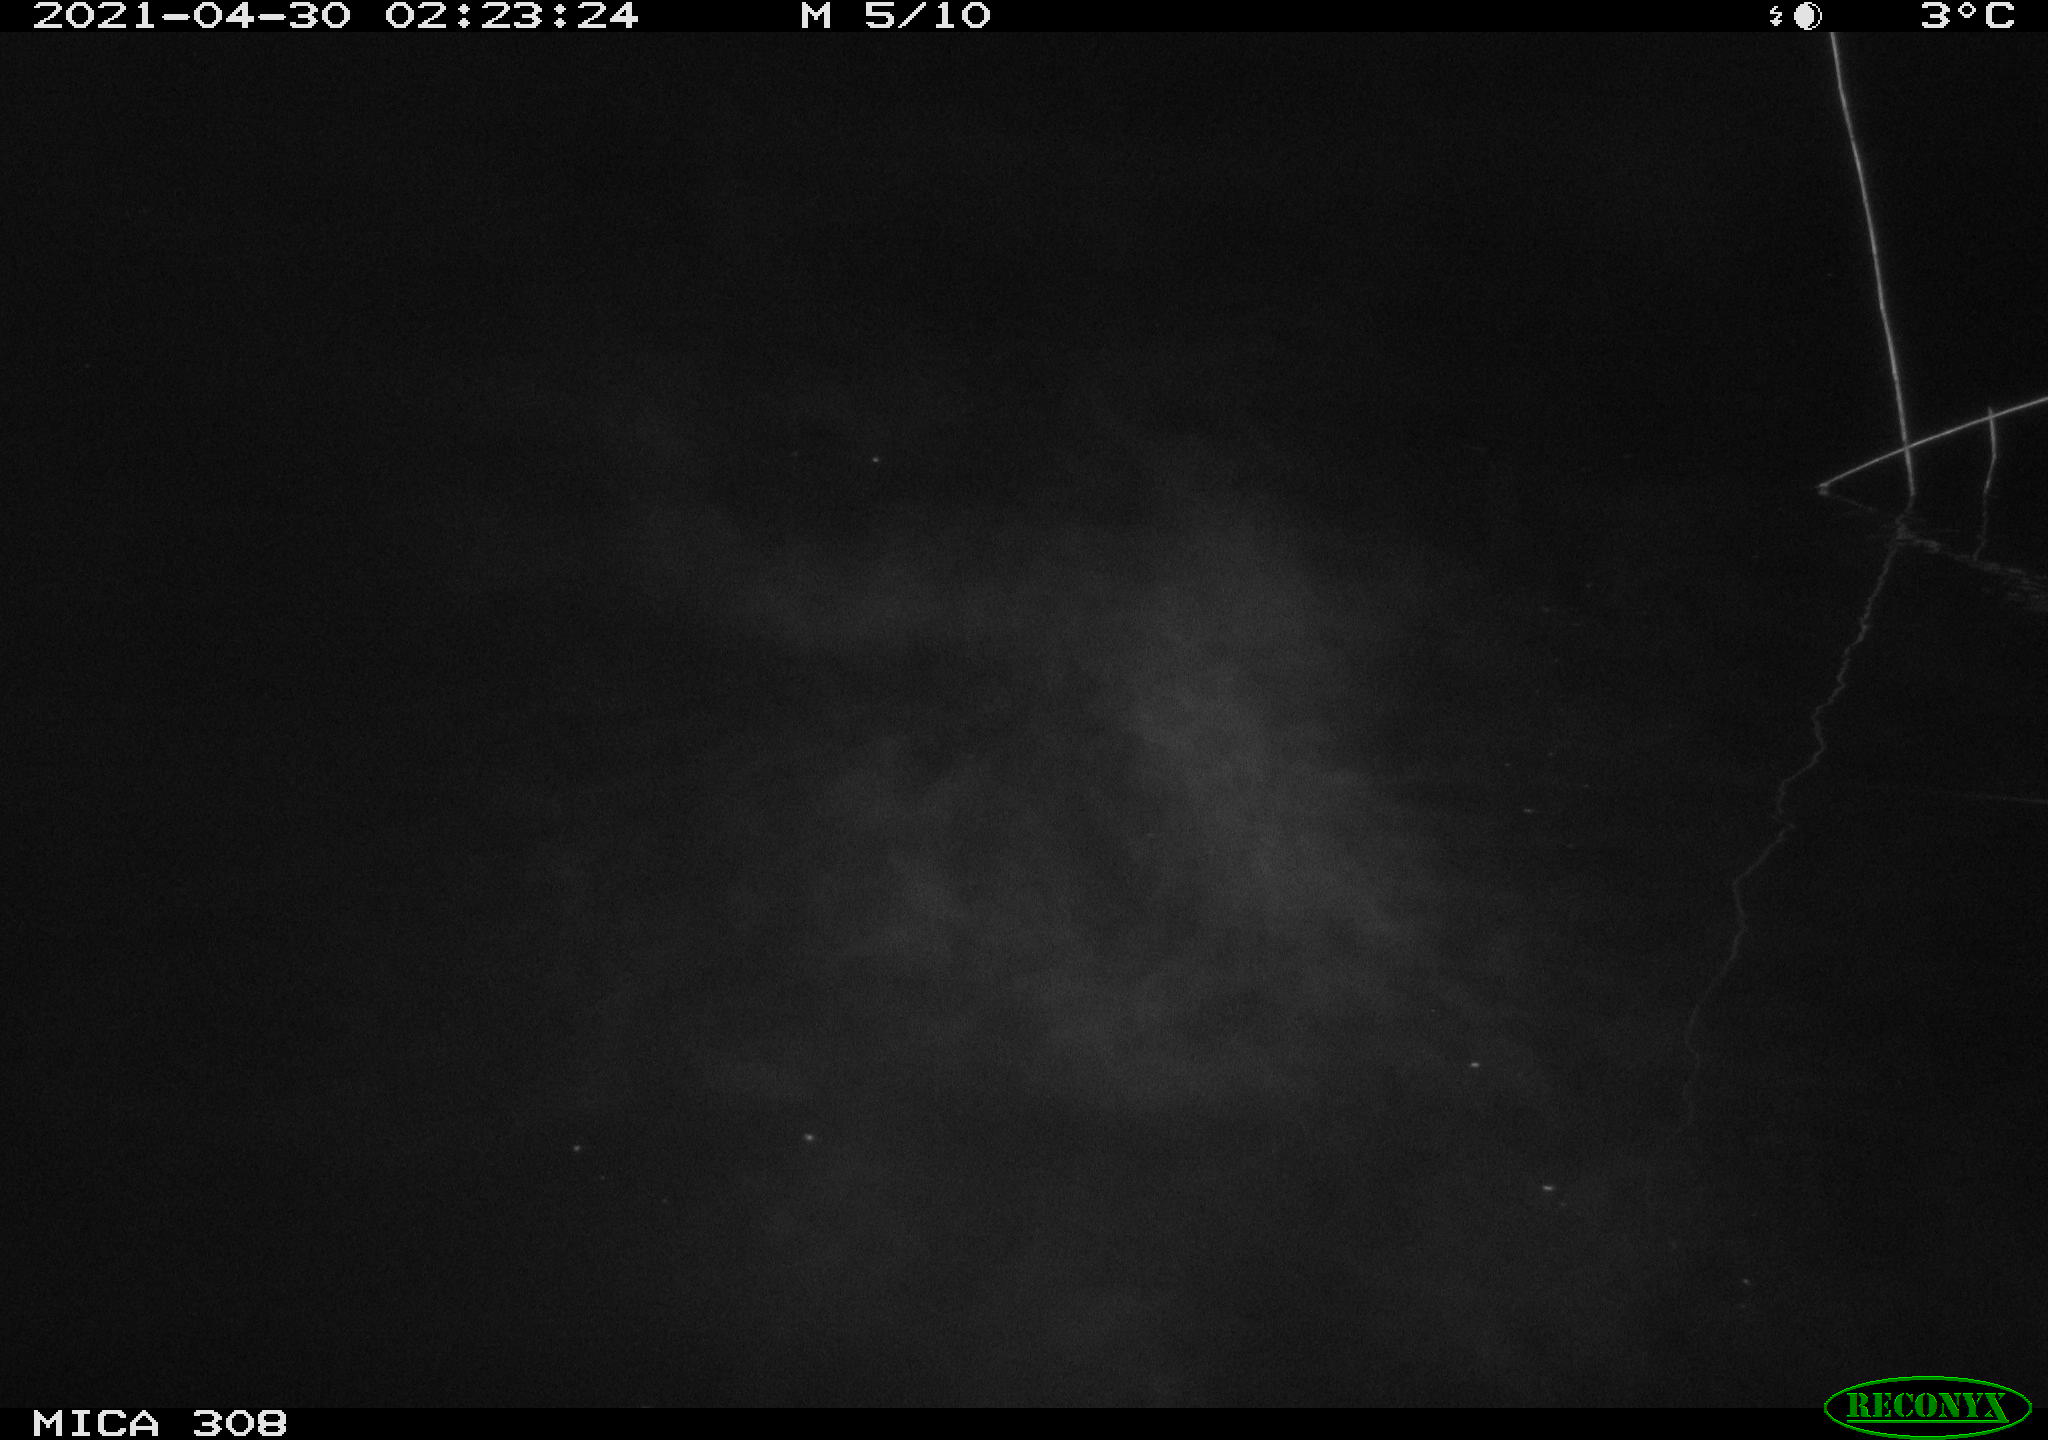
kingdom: Animalia
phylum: Chordata
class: Aves
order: Anseriformes
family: Anatidae
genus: Anas
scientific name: Anas platyrhynchos
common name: Mallard
